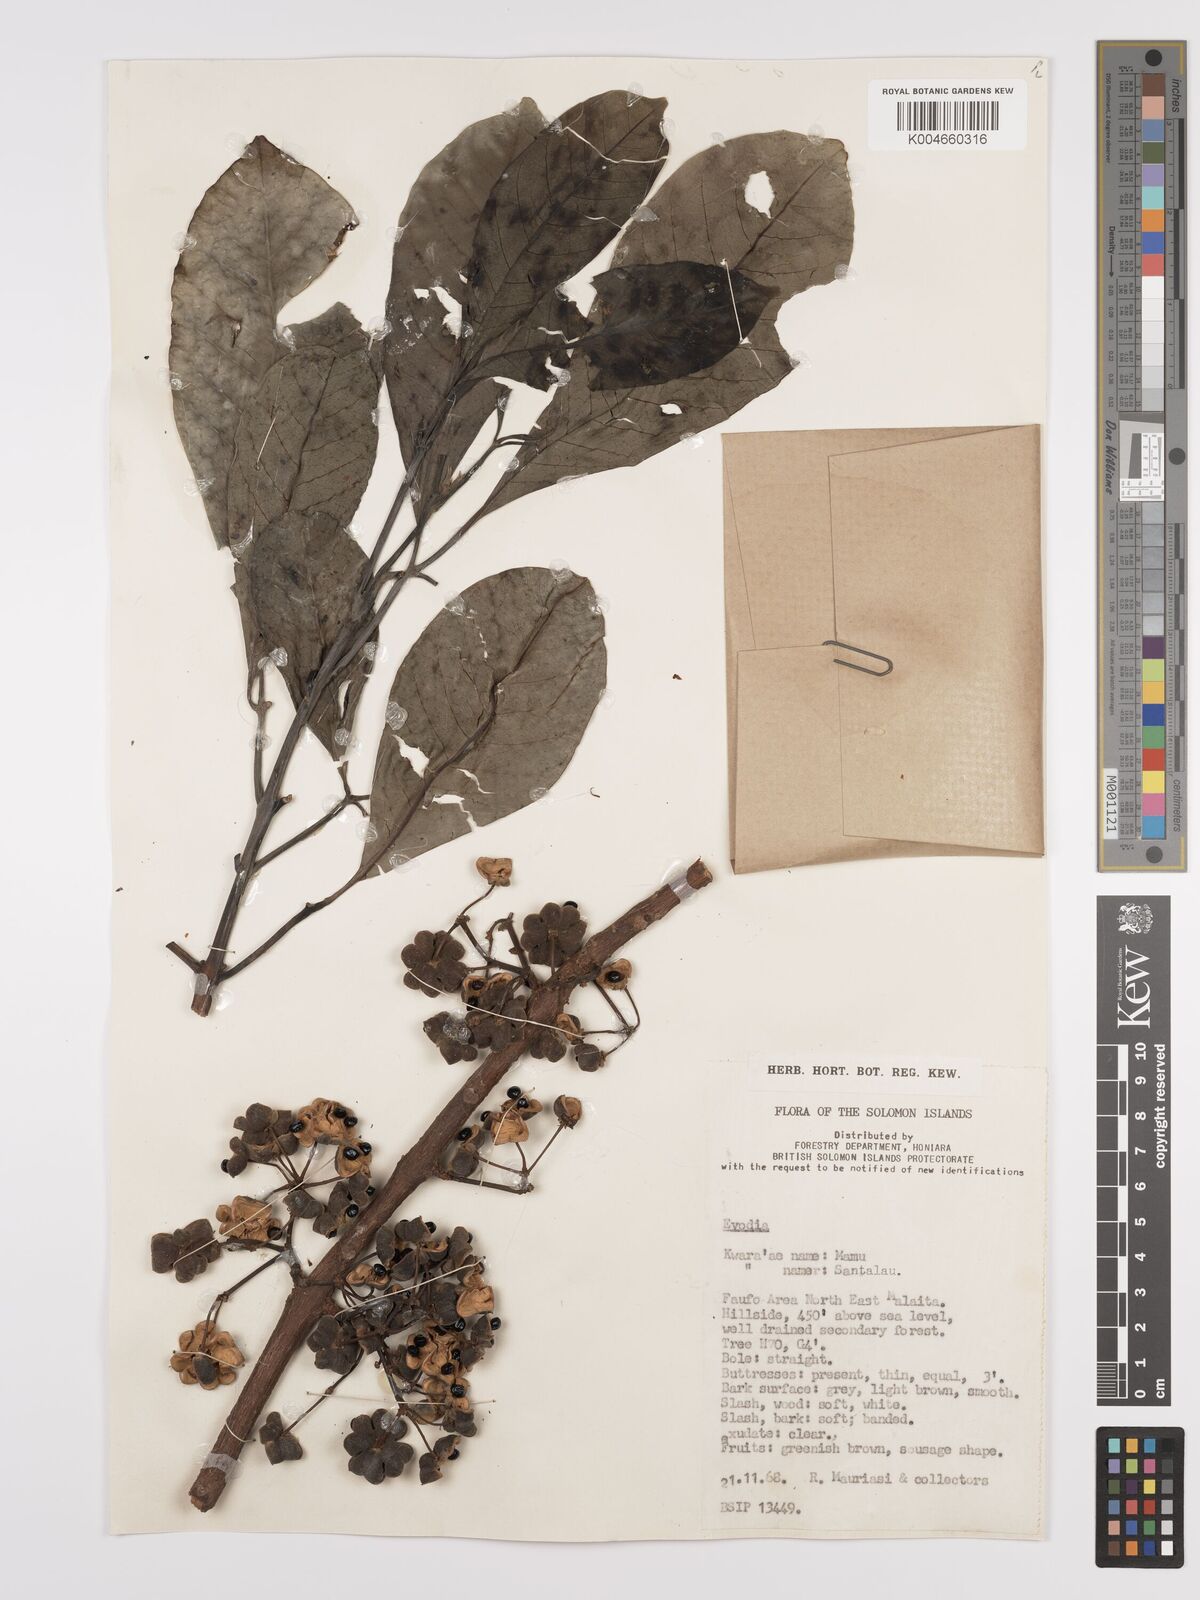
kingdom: Plantae
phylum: Tracheophyta
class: Magnoliopsida
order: Sapindales
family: Rutaceae
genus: Euodia
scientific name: Euodia
